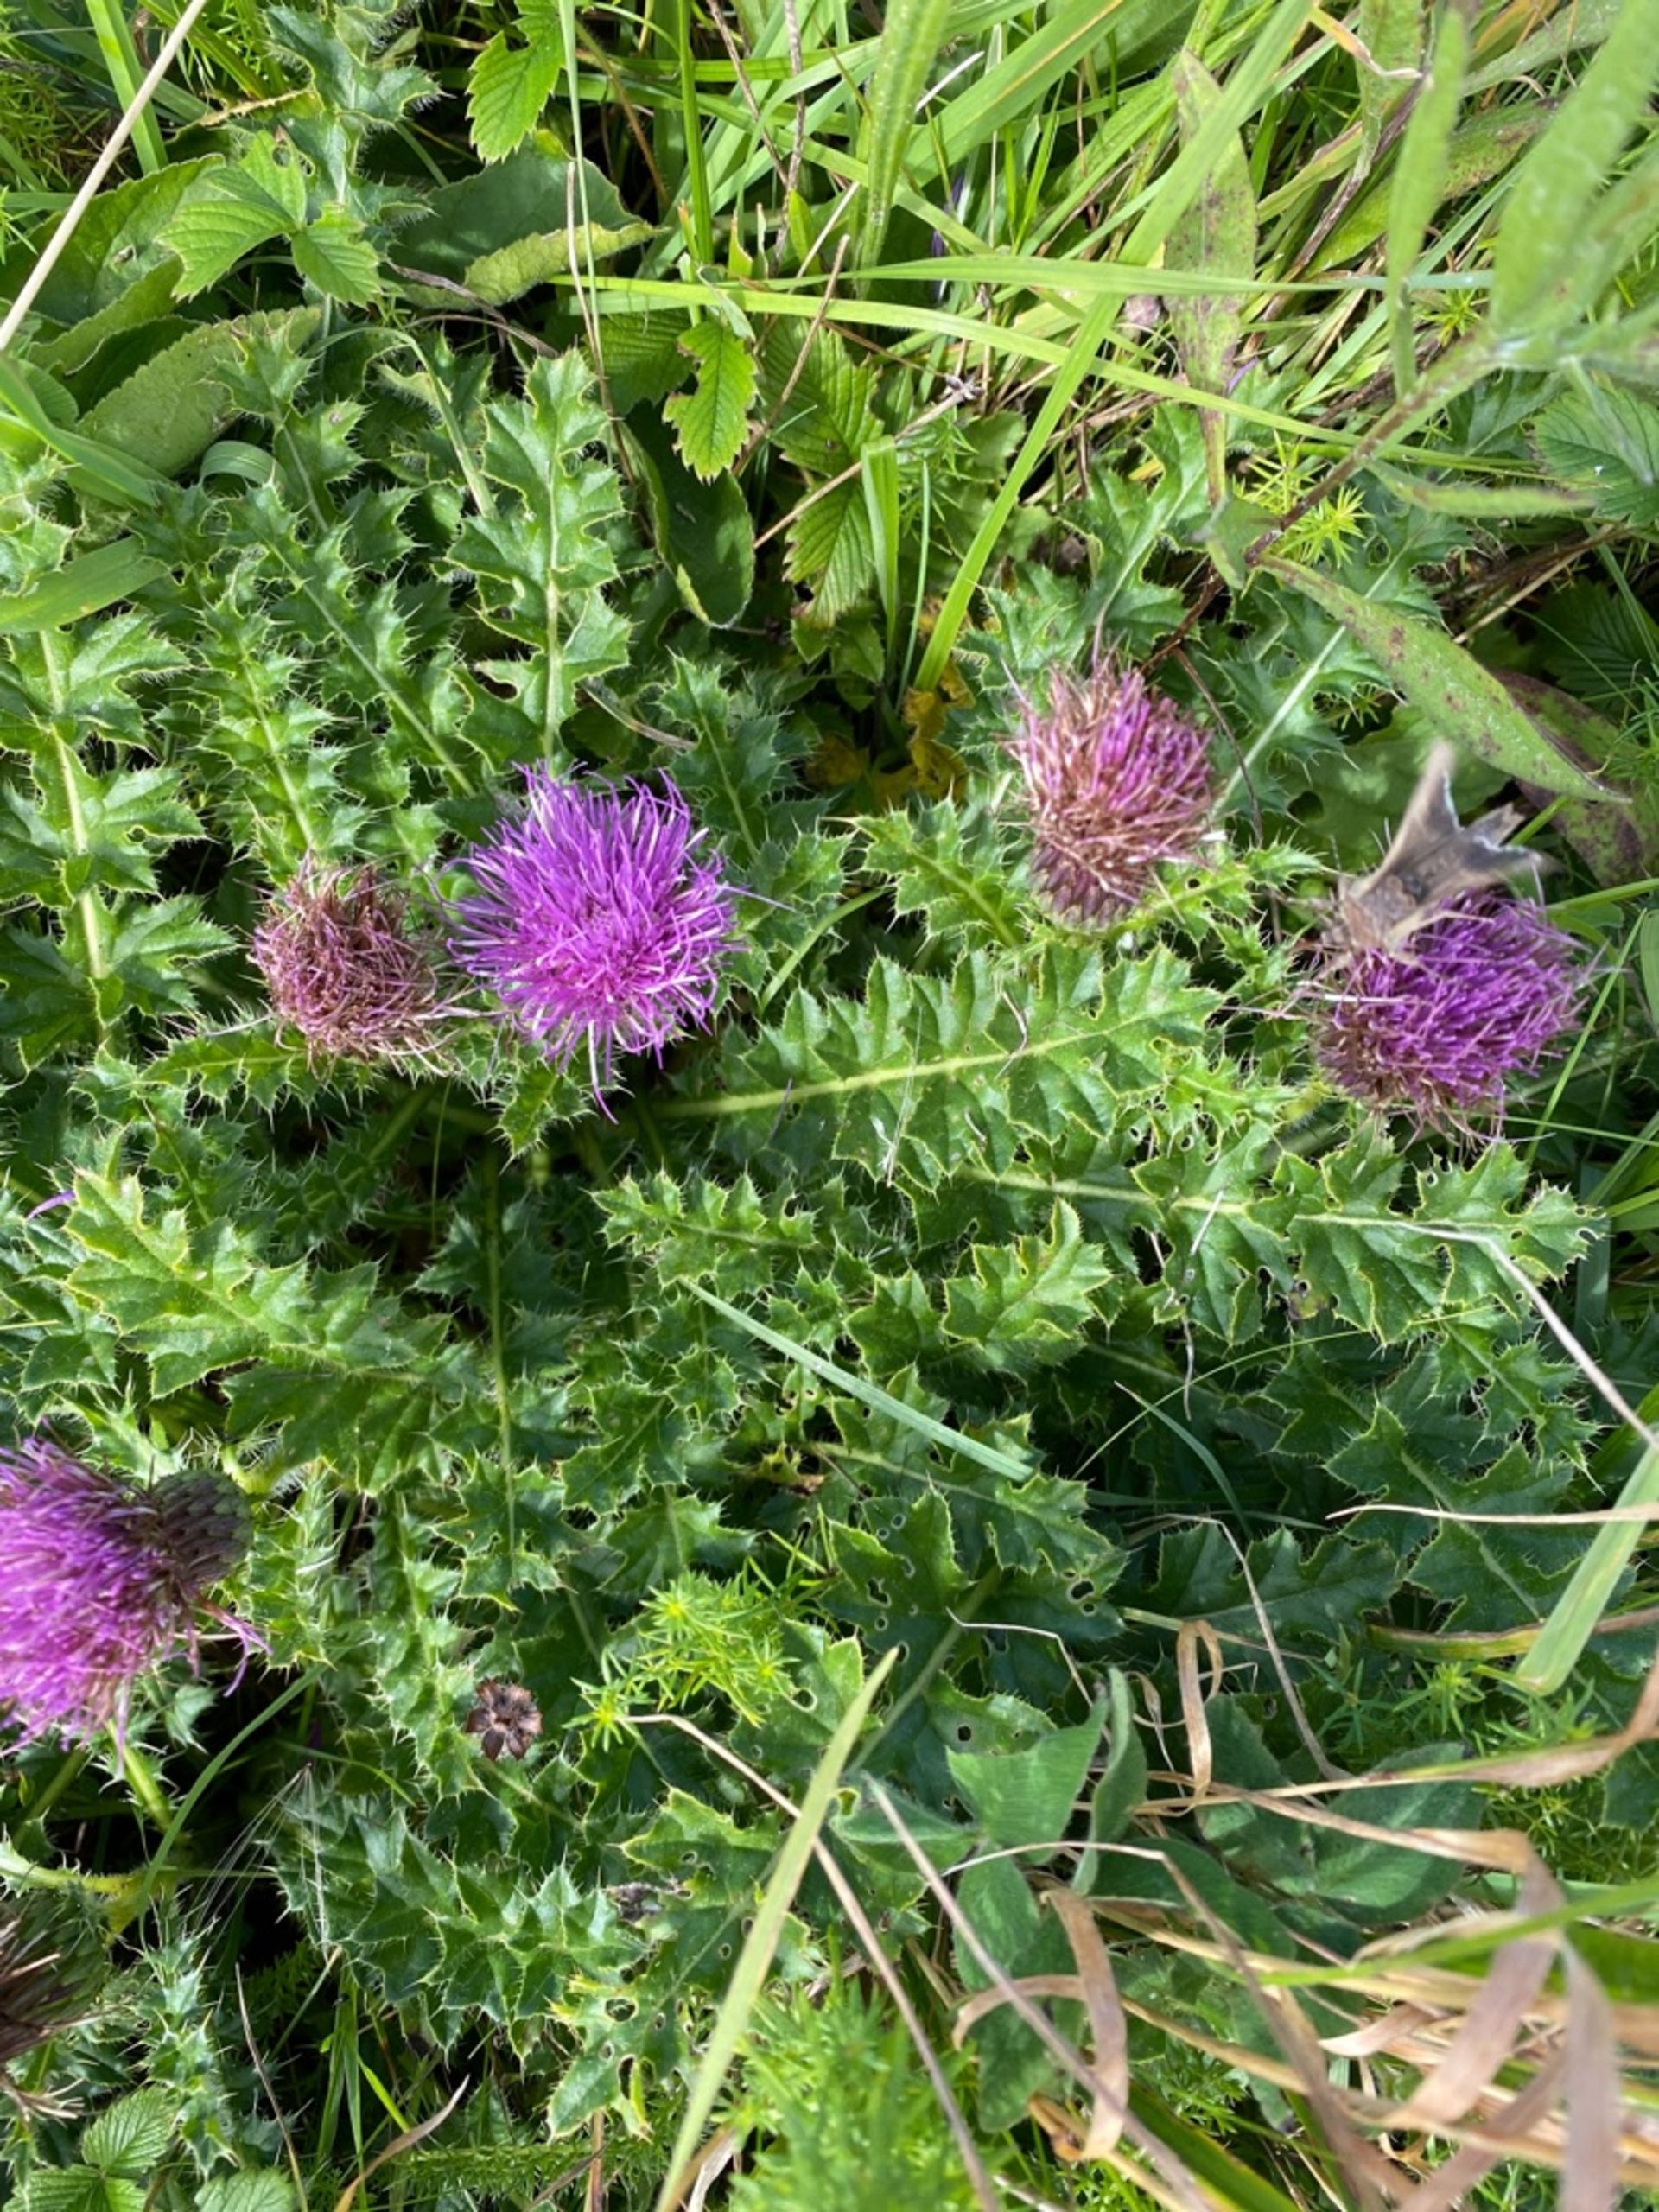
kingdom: Plantae
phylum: Tracheophyta
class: Magnoliopsida
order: Asterales
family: Asteraceae
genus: Cirsium
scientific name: Cirsium acaule
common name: Lav tidsel
